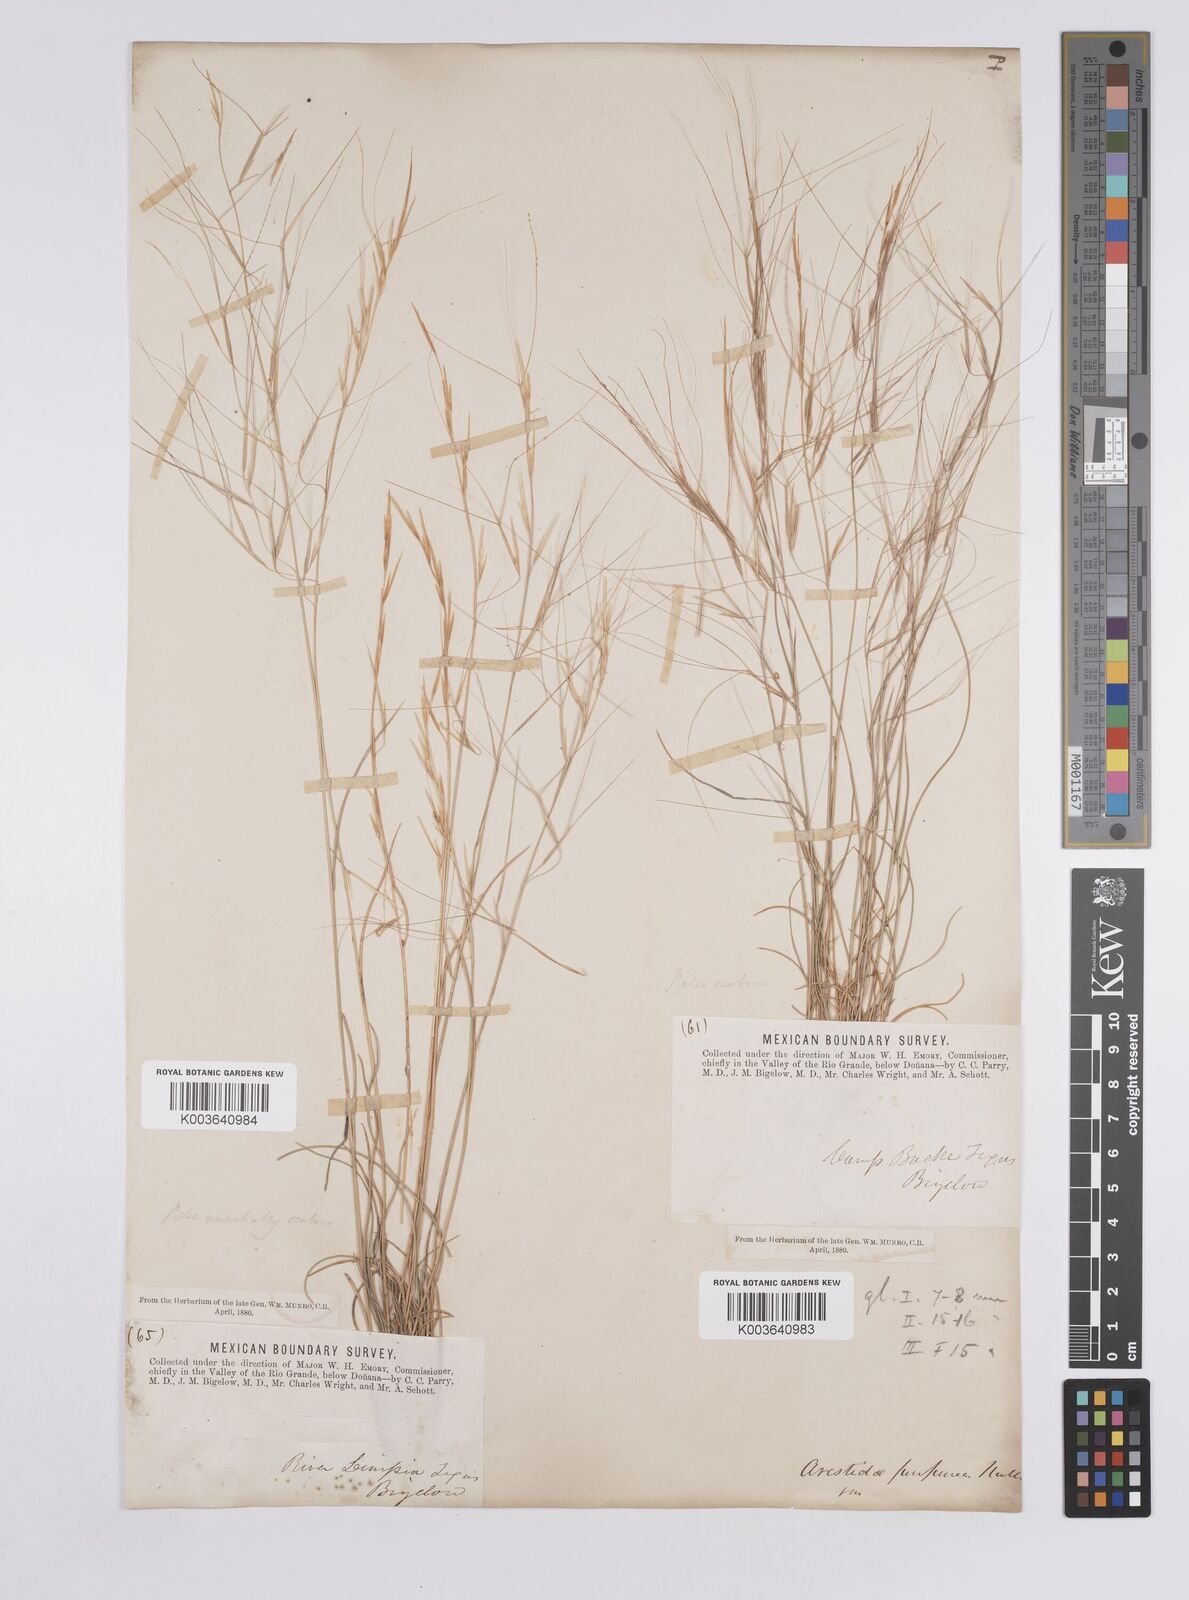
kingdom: Plantae
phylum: Tracheophyta
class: Liliopsida
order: Poales
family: Poaceae
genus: Aristida
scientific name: Aristida purpurea
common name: Purple threeawn
